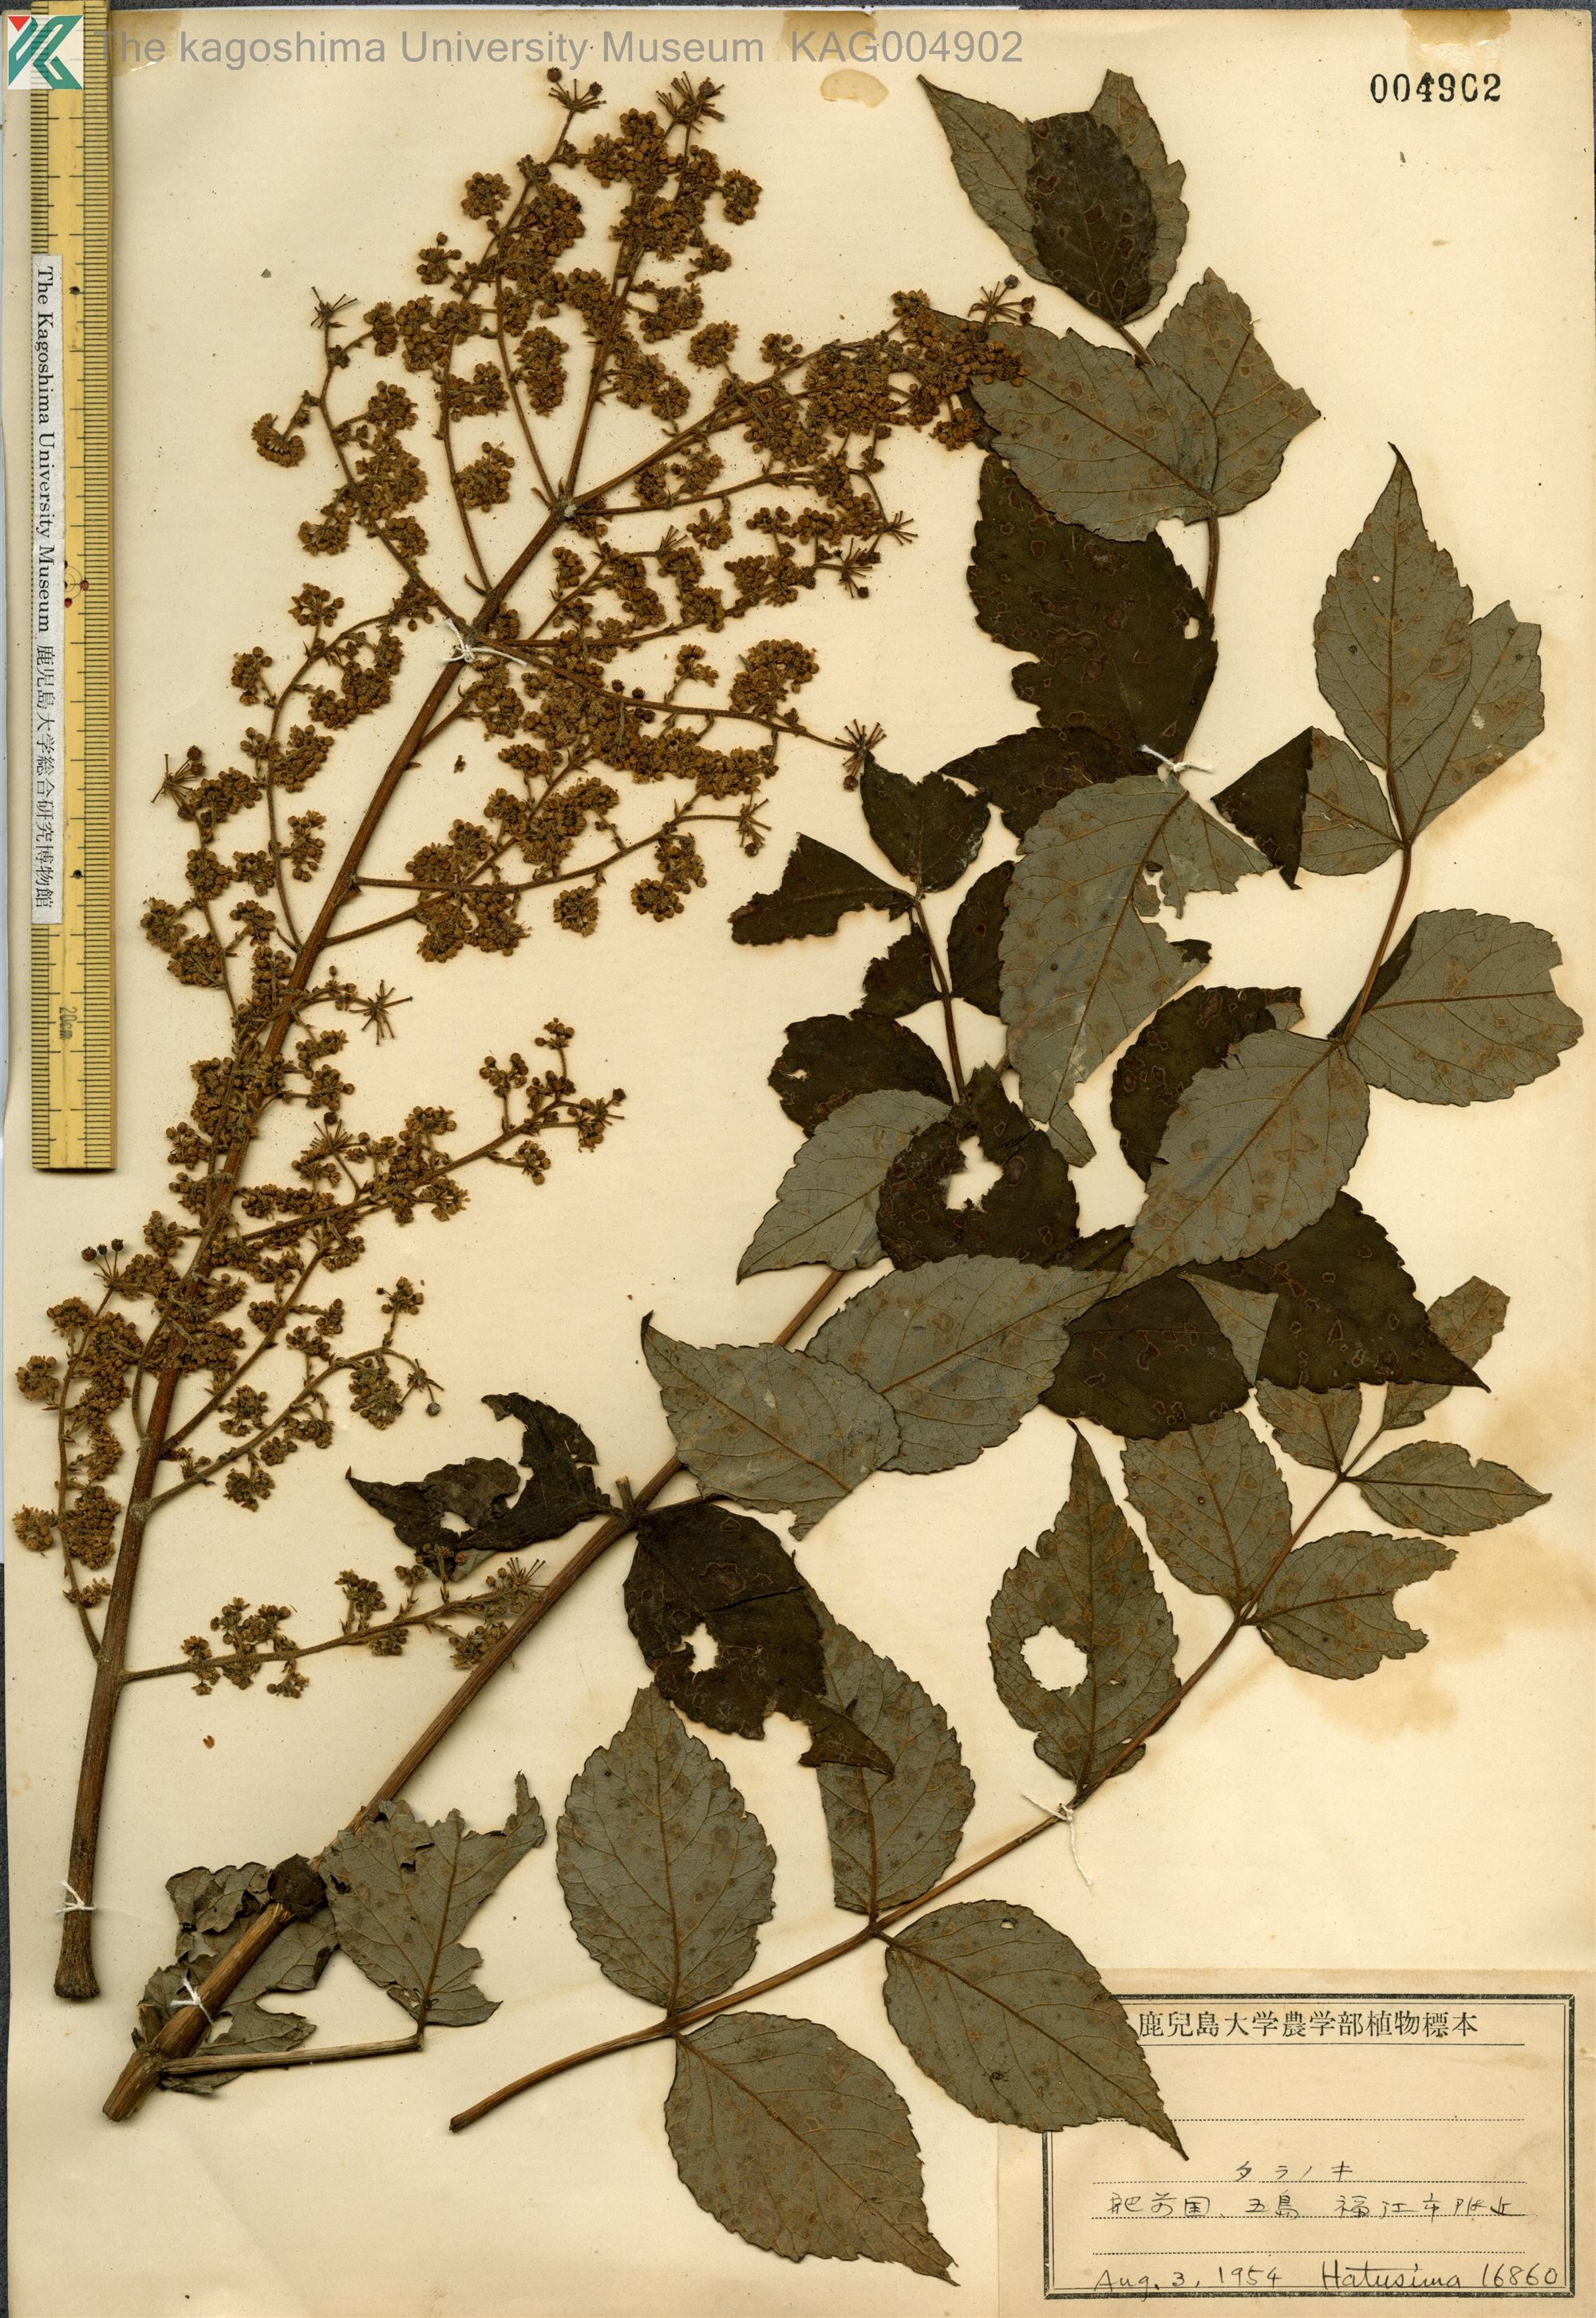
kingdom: Plantae
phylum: Tracheophyta
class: Magnoliopsida
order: Apiales
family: Araliaceae
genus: Aralia
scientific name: Aralia elata
